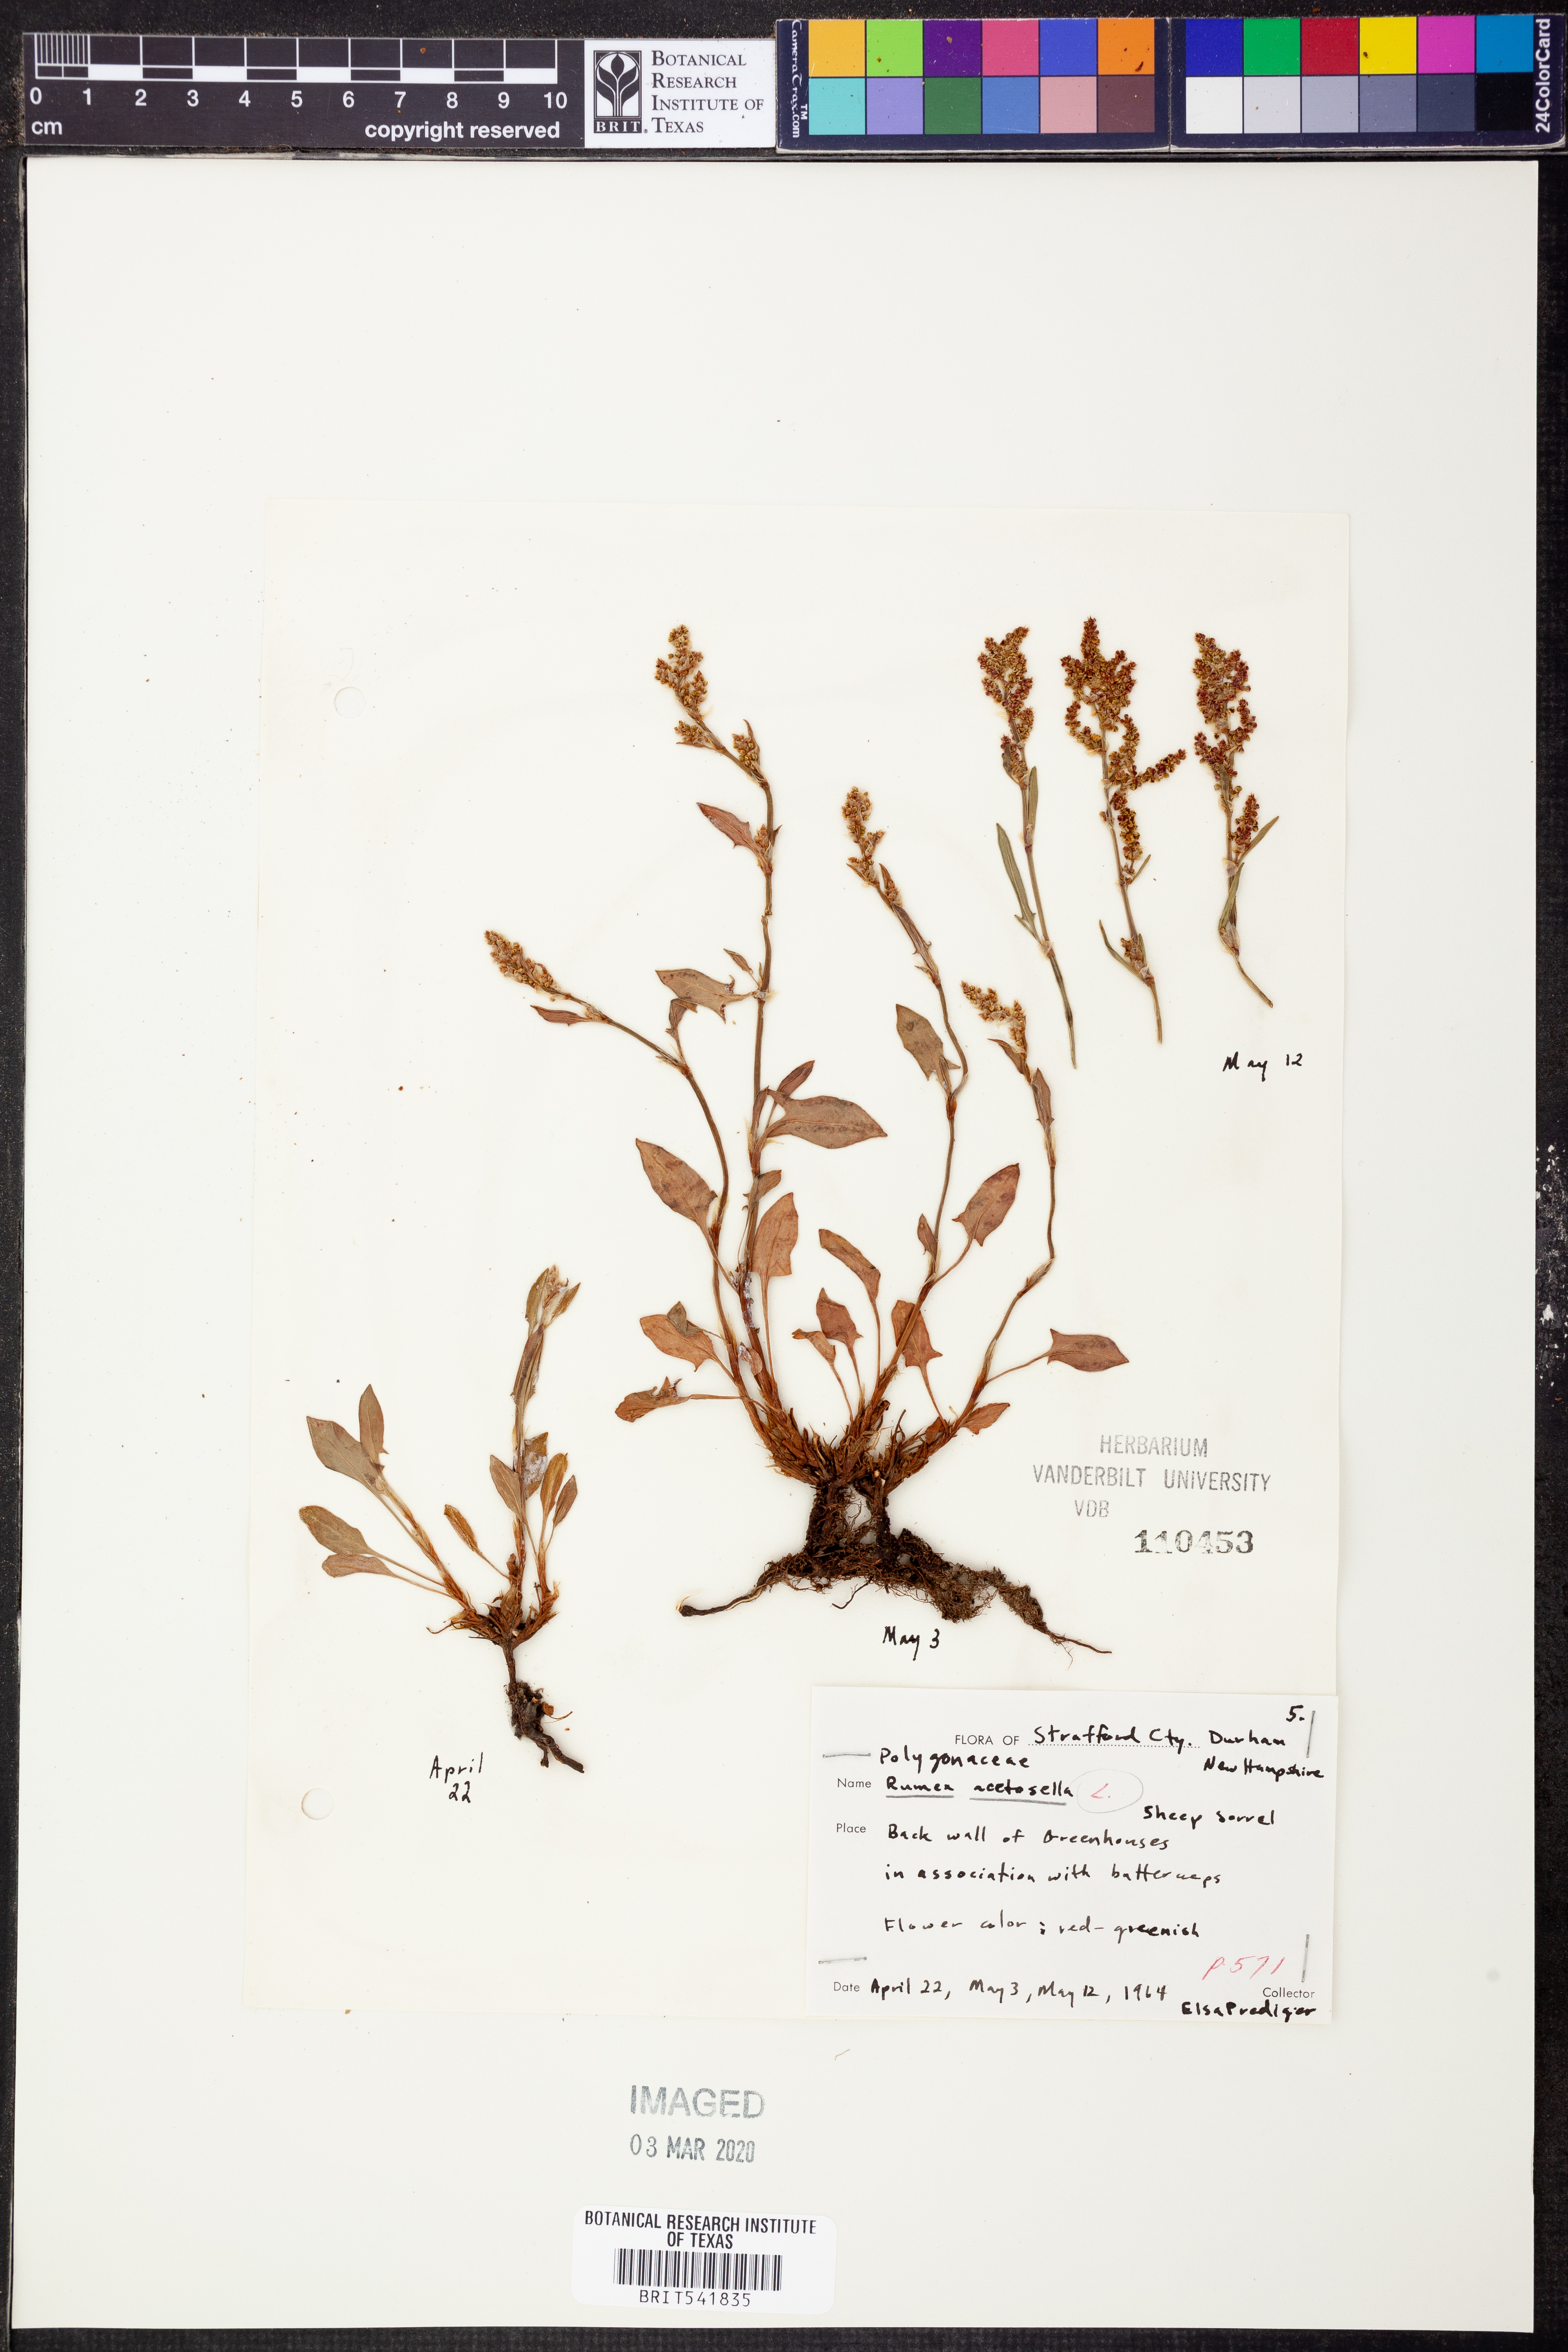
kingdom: Plantae
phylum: Tracheophyta
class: Magnoliopsida
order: Caryophyllales
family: Polygonaceae
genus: Rumex
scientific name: Rumex acetosella
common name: Common sheep sorrel
